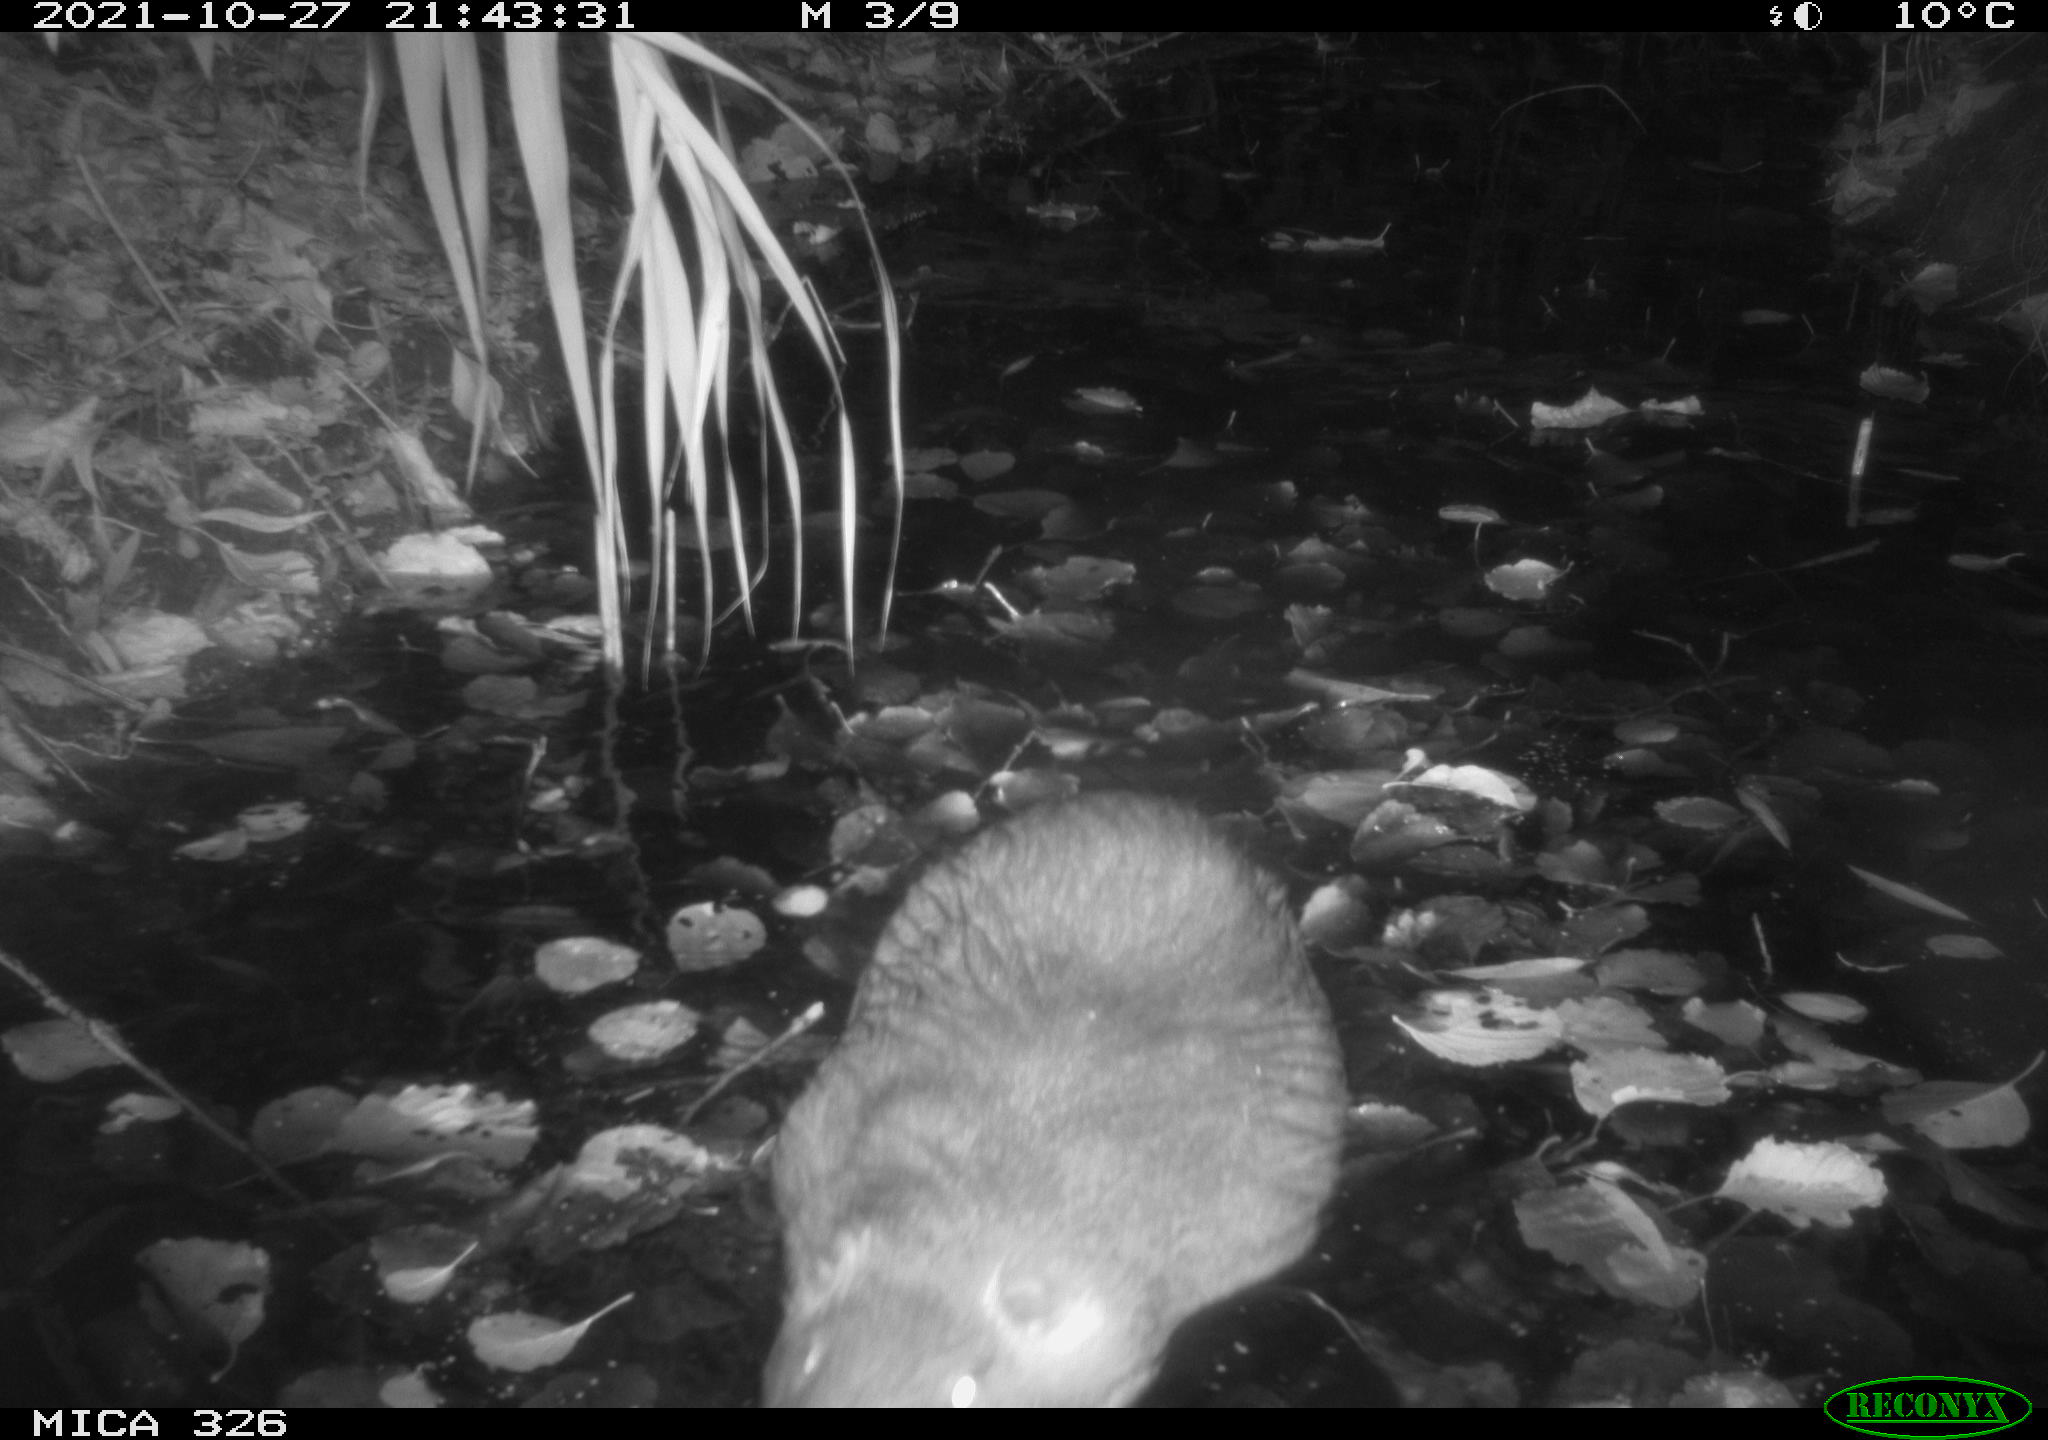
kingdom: Animalia
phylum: Chordata
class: Mammalia
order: Rodentia
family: Myocastoridae
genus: Myocastor
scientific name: Myocastor coypus
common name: Coypu
